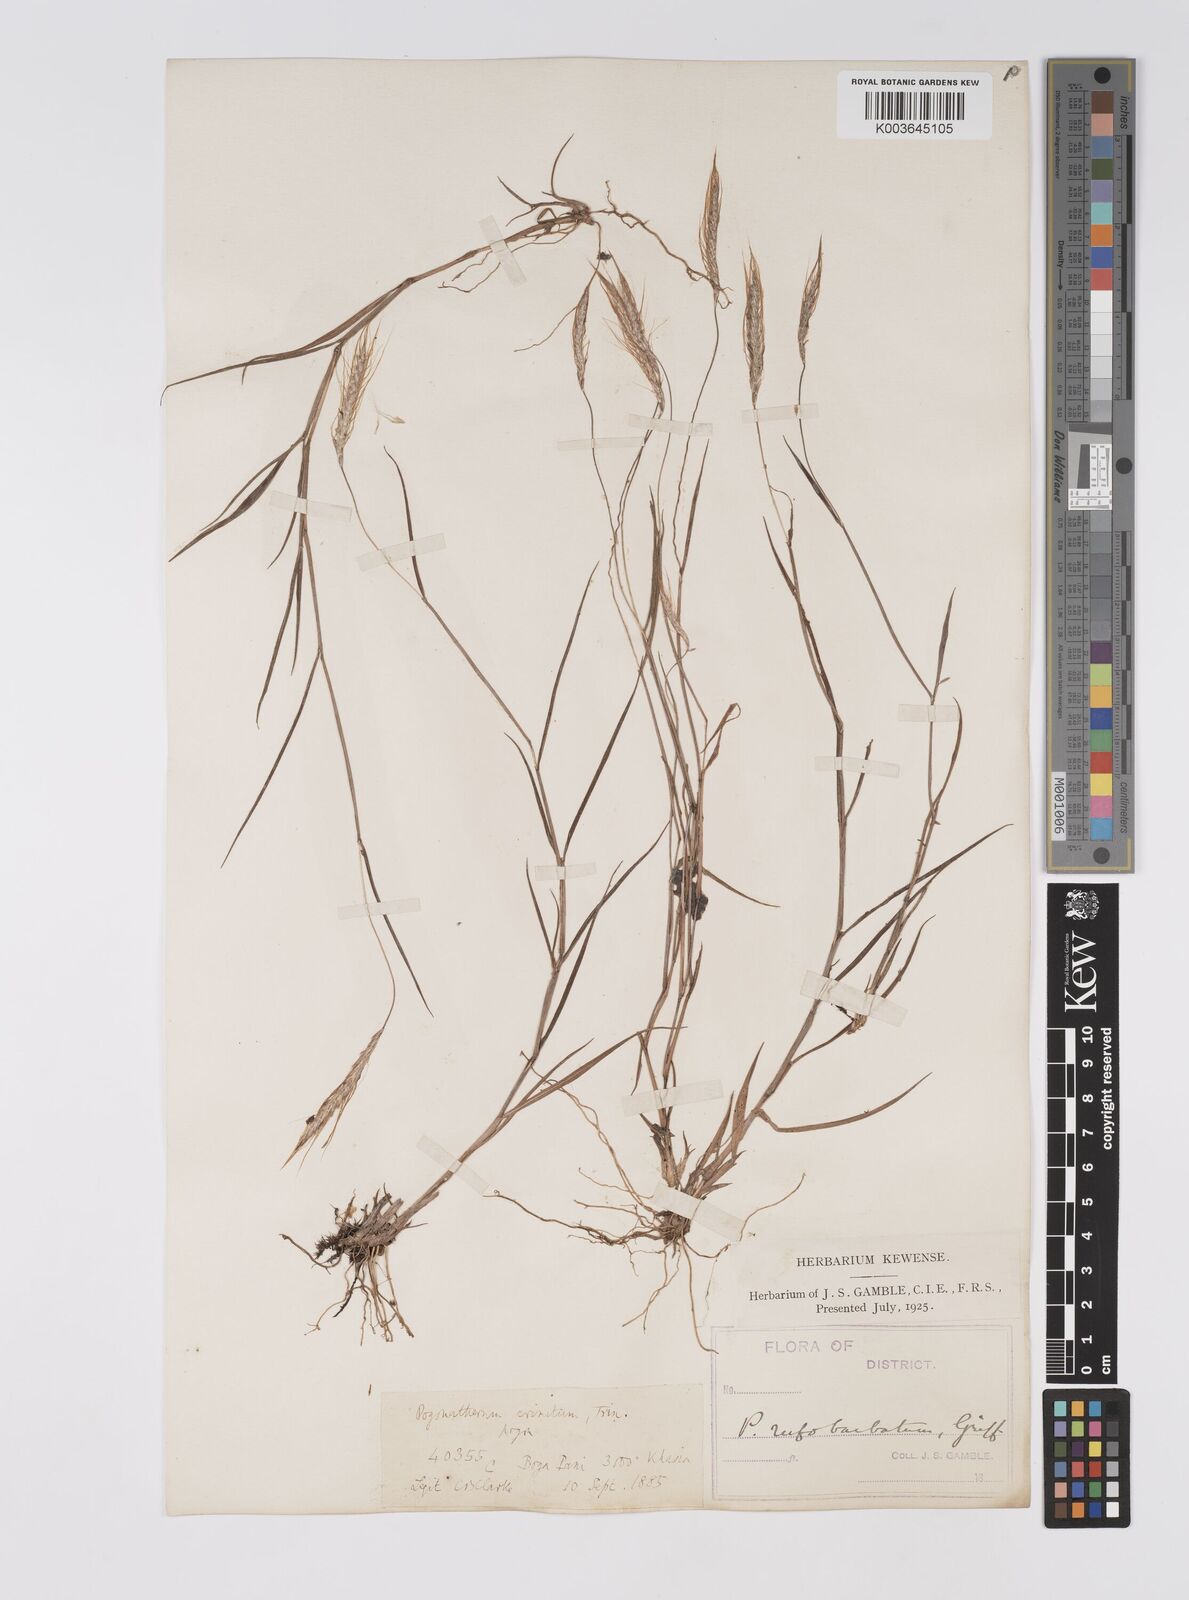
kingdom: Plantae
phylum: Tracheophyta
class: Liliopsida
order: Poales
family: Poaceae
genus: Pogonatherum
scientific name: Pogonatherum rufobarbatum
